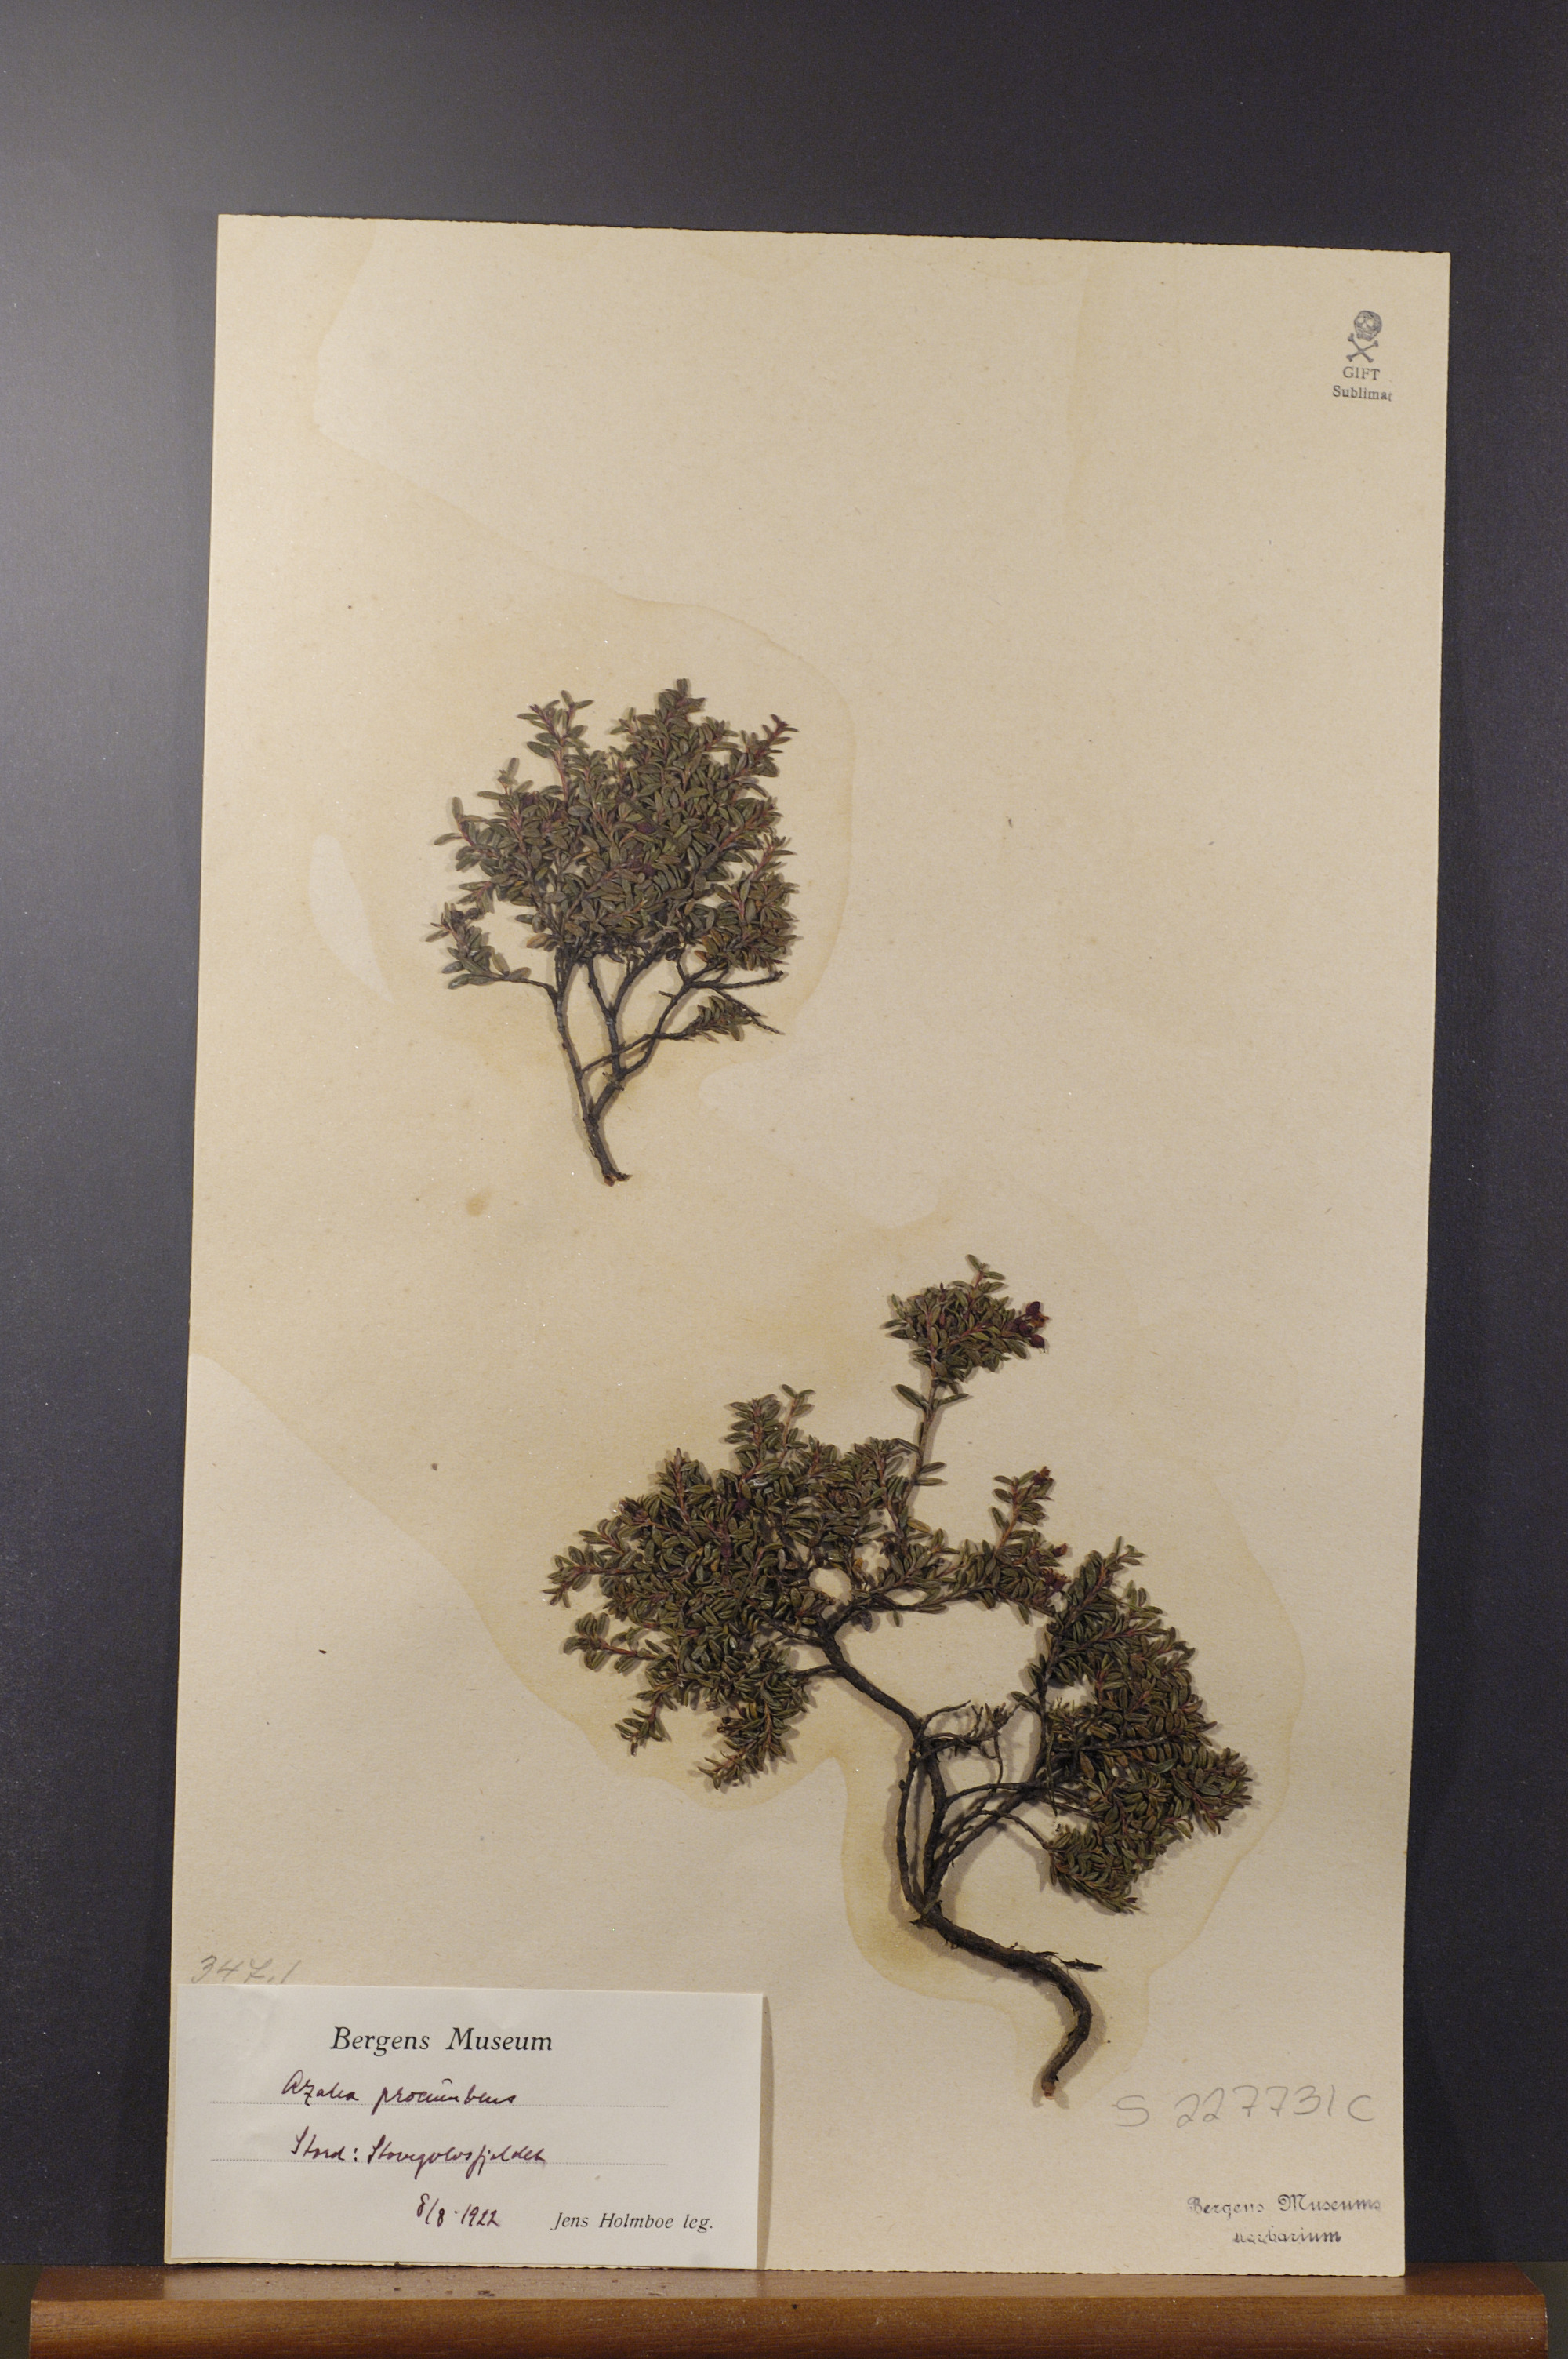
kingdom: Plantae
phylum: Tracheophyta
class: Magnoliopsida
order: Ericales
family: Ericaceae
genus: Kalmia
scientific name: Kalmia procumbens
